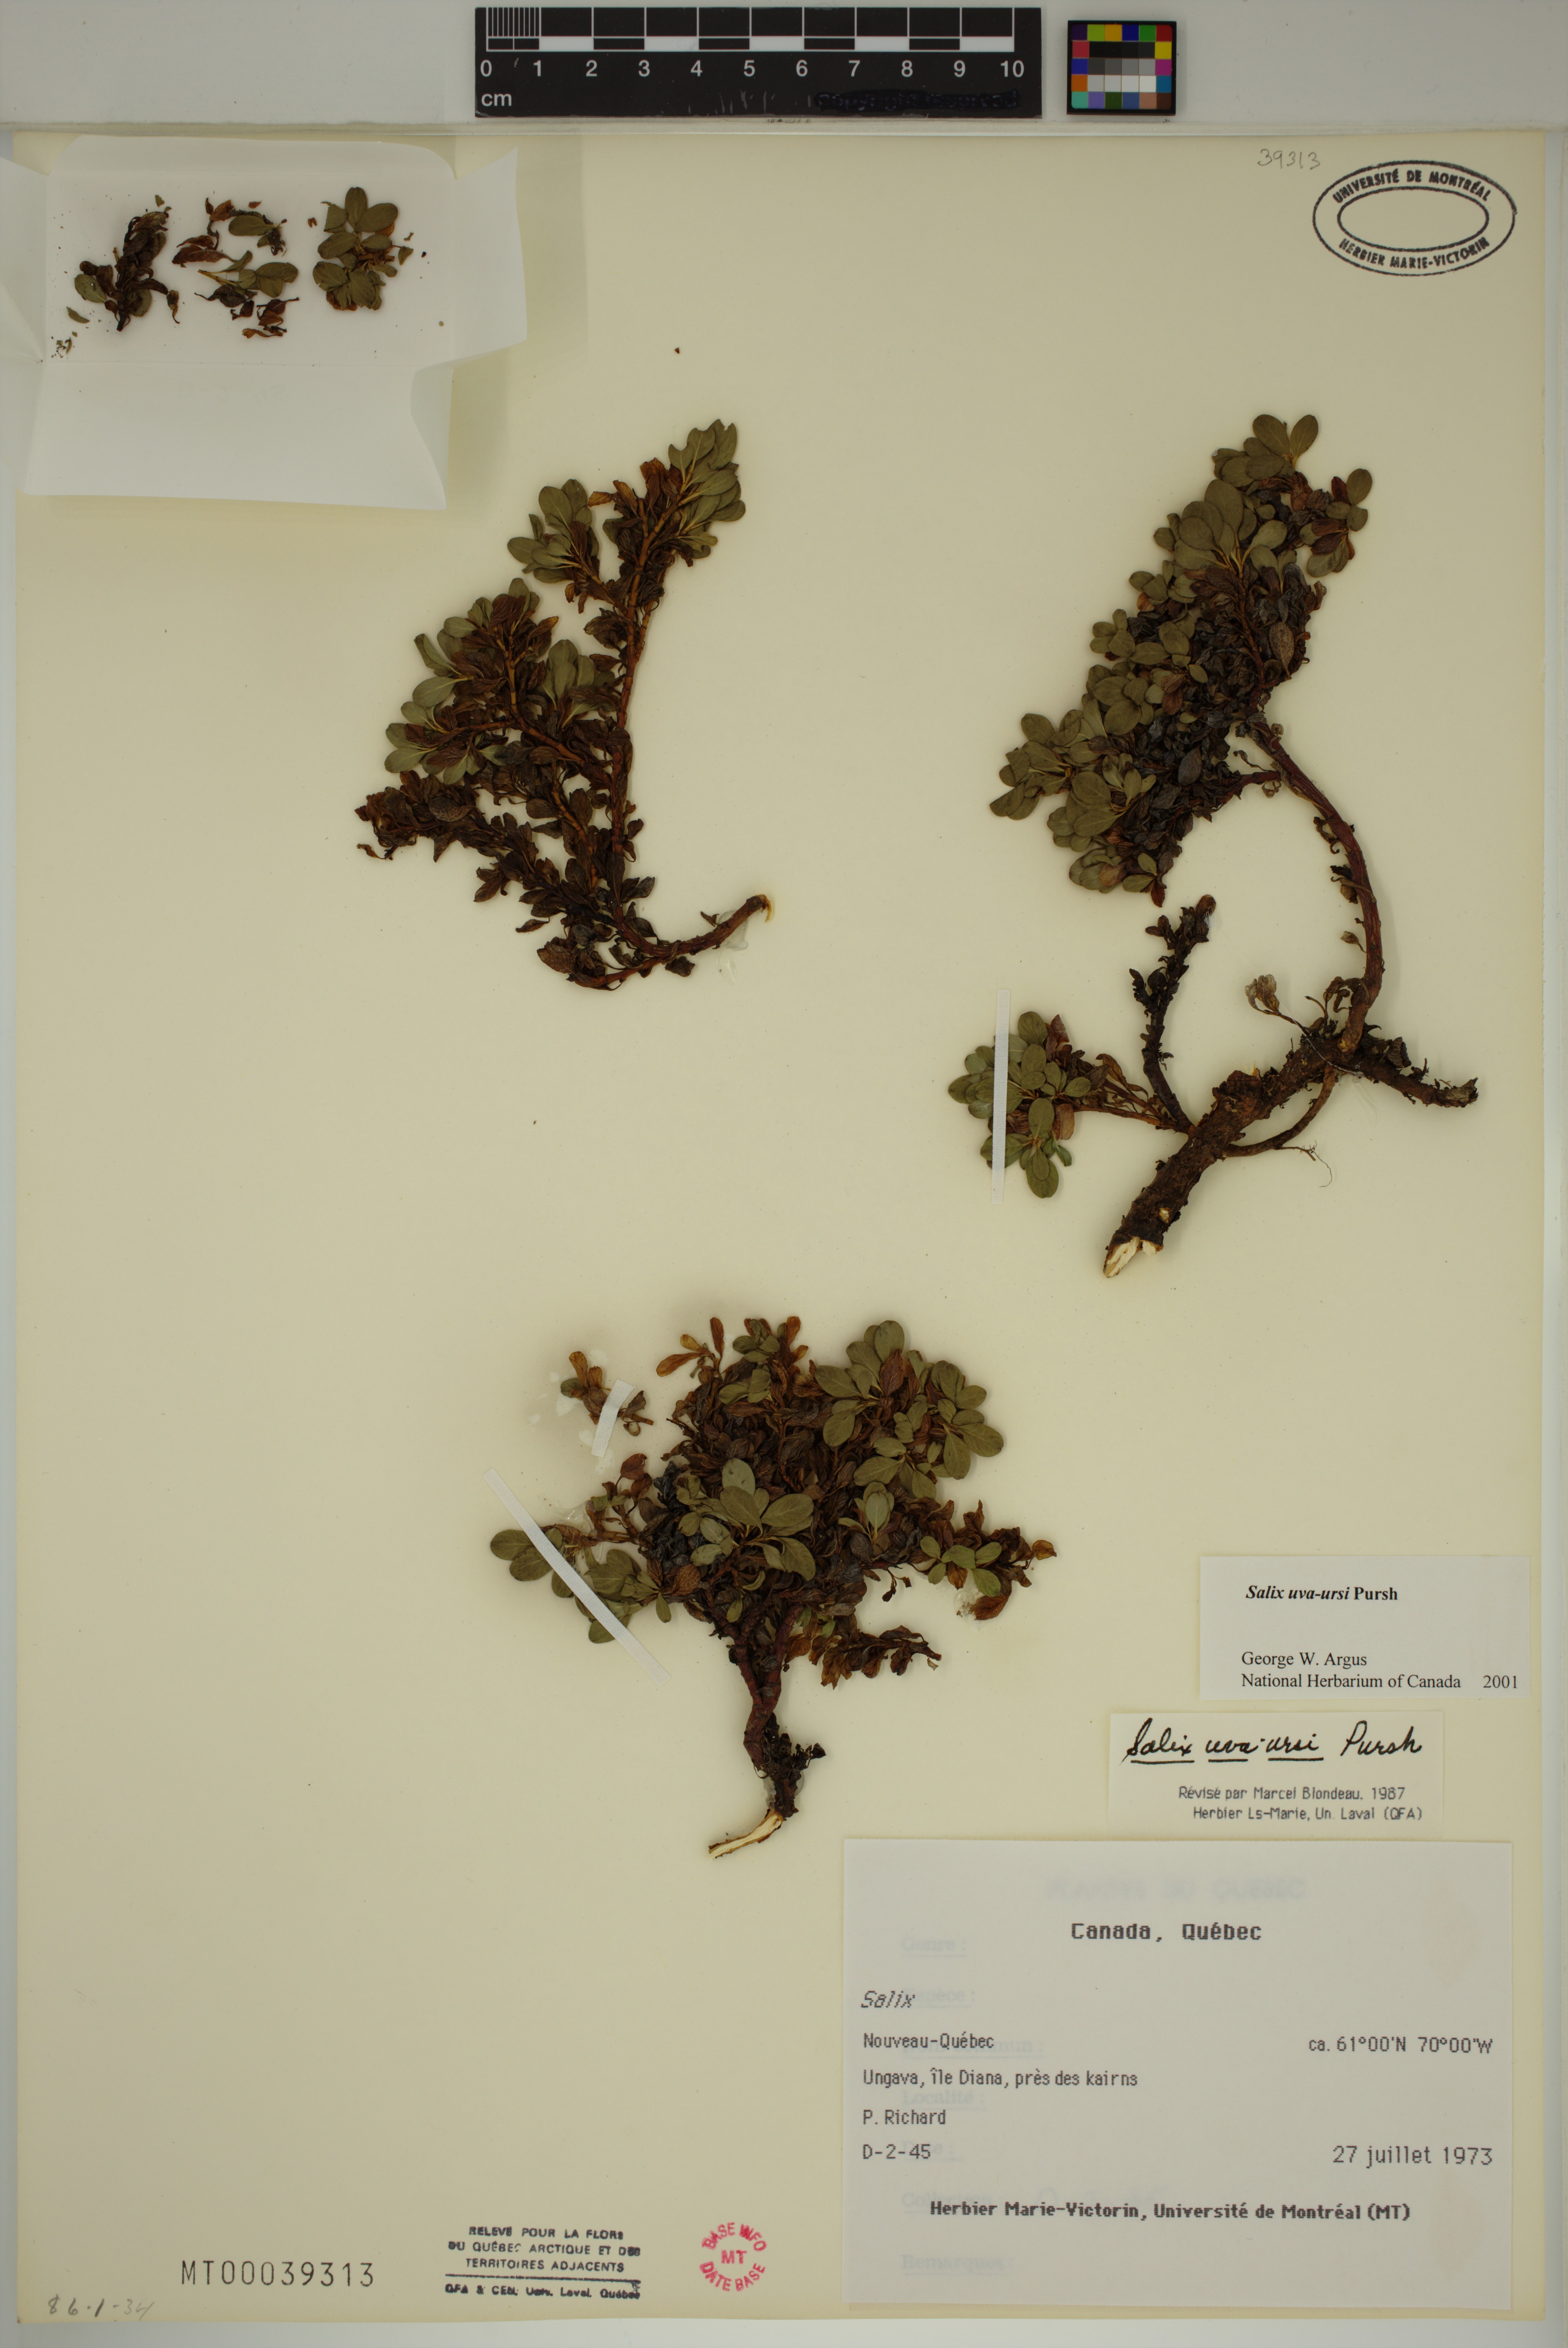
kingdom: Plantae
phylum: Tracheophyta
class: Magnoliopsida
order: Malpighiales
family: Salicaceae
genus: Salix
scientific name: Salix uva-ursi
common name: Bearberry willow
